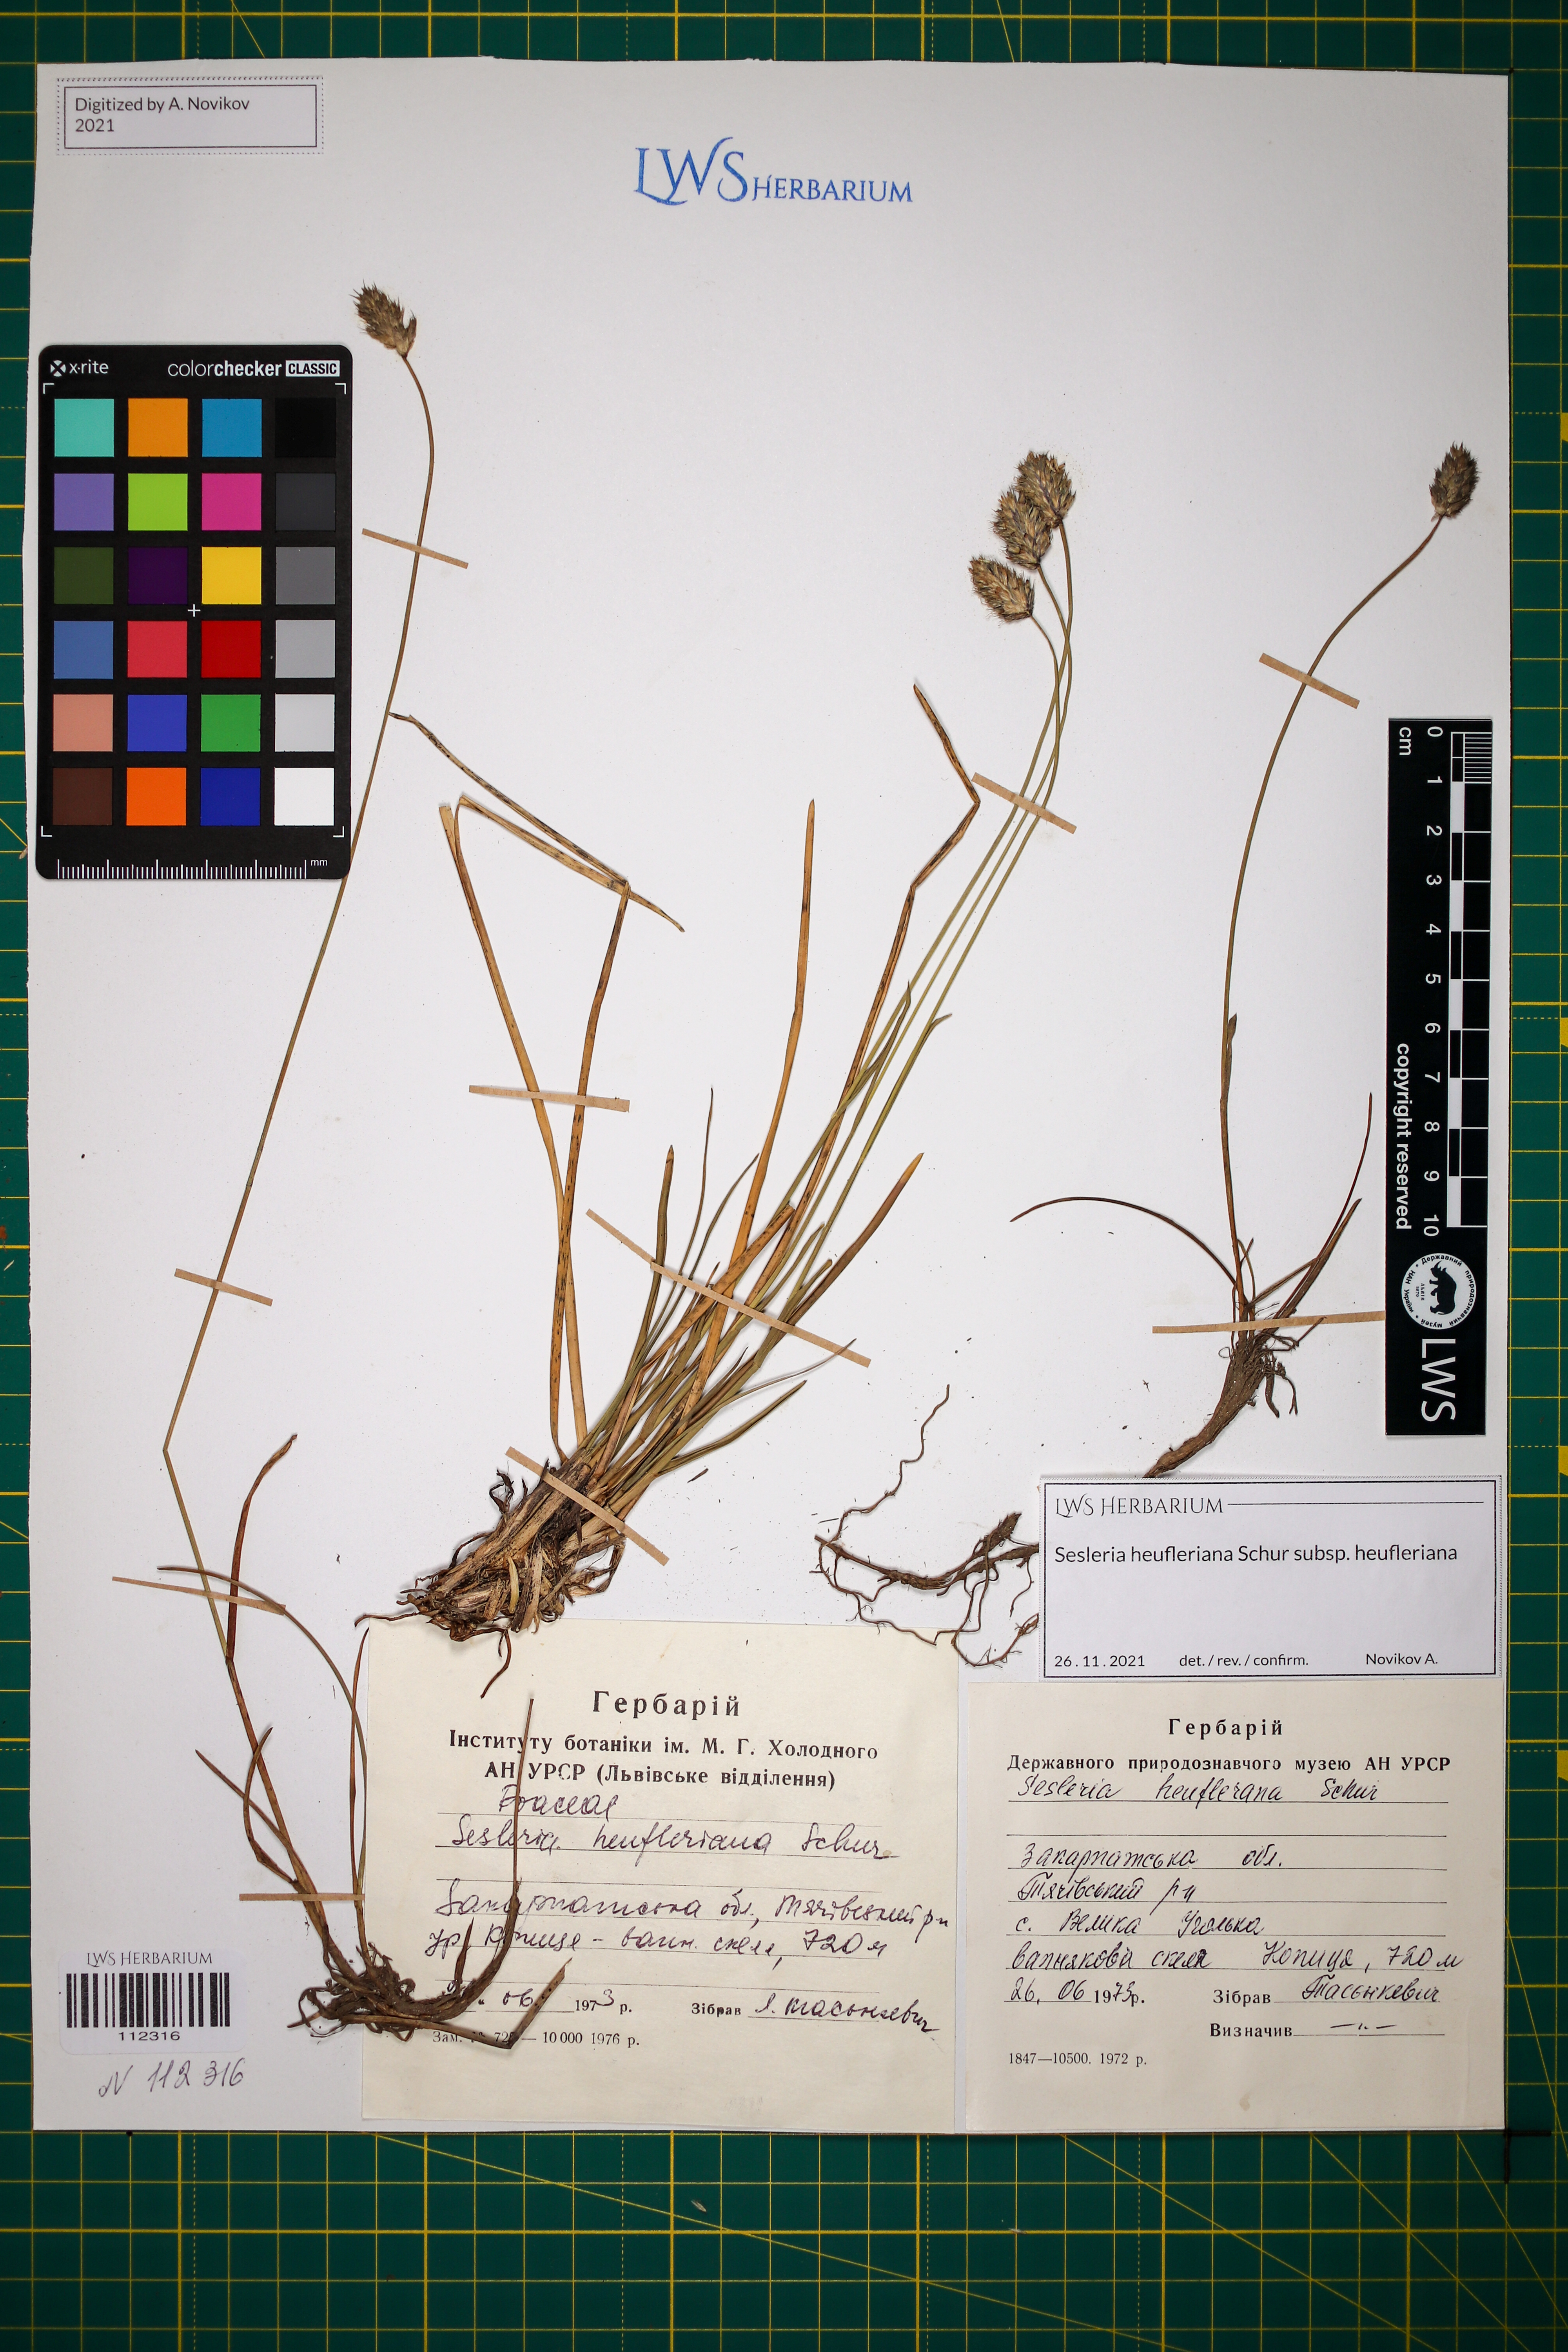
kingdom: Plantae
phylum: Tracheophyta
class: Liliopsida
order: Poales
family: Poaceae
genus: Sesleria
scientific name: Sesleria heufleriana
